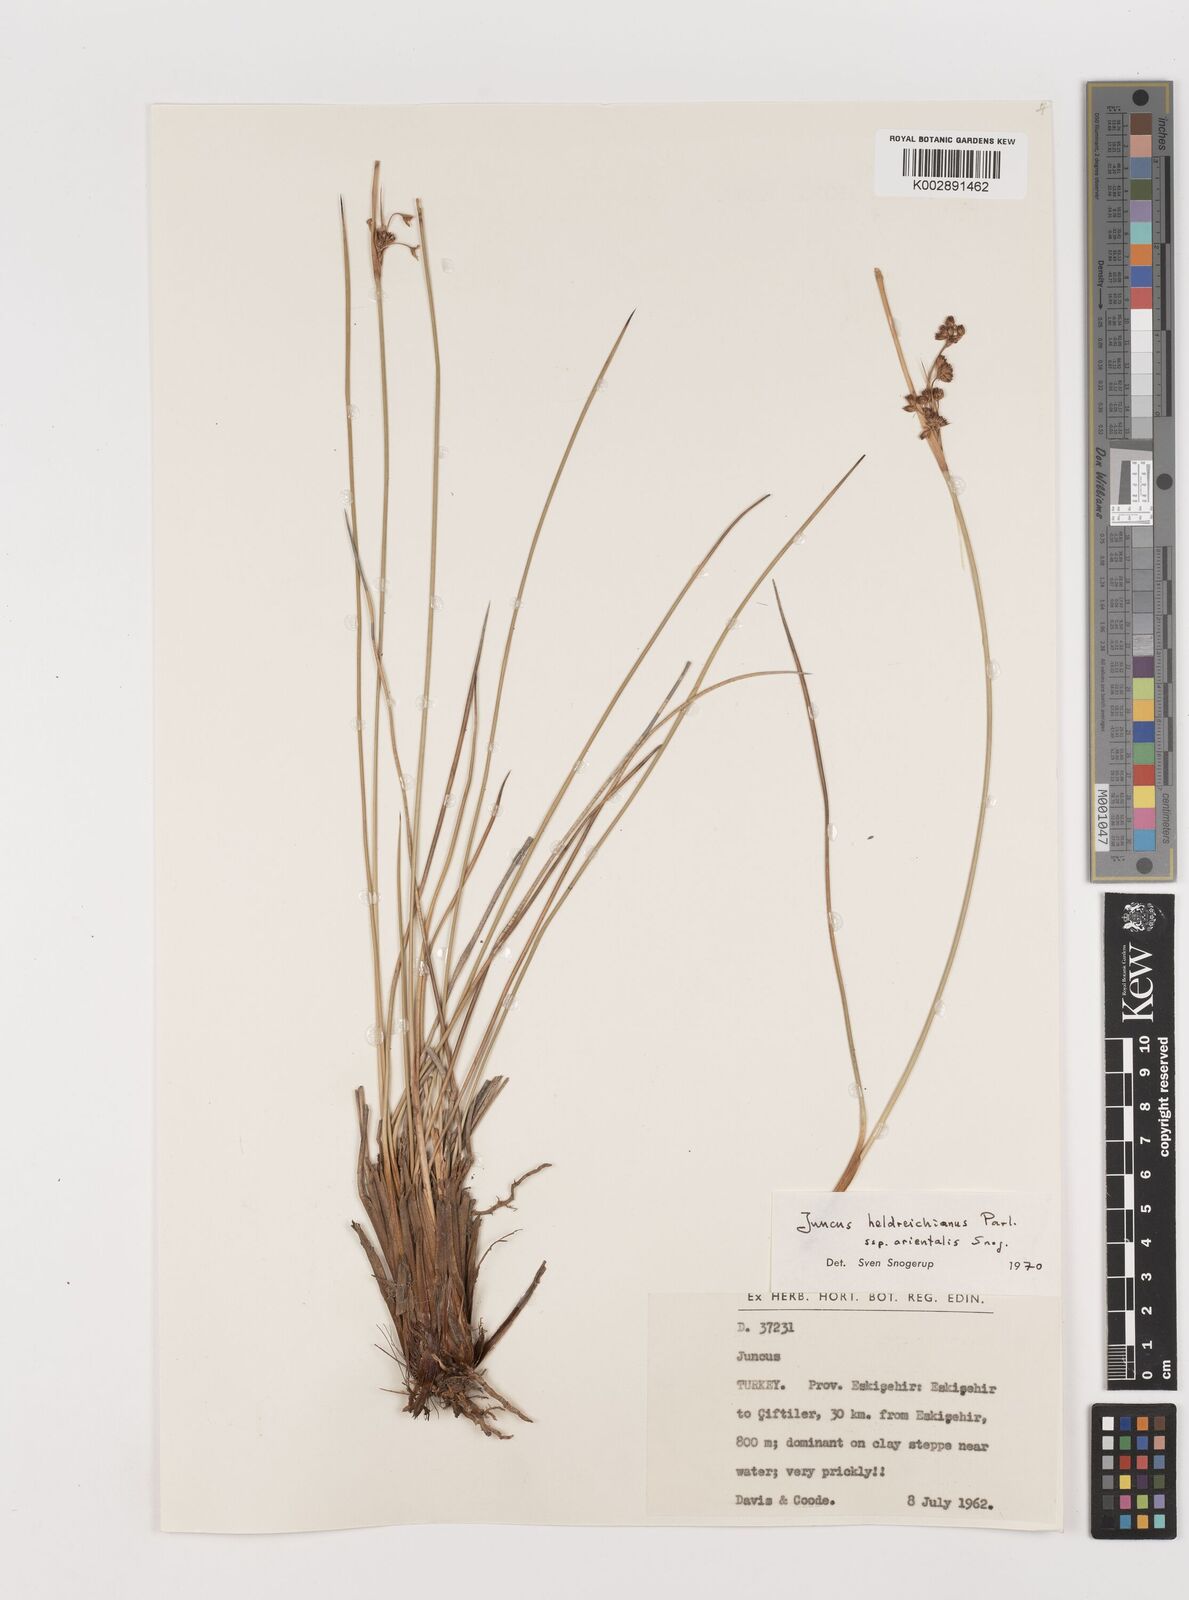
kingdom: Plantae
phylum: Tracheophyta
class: Liliopsida
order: Poales
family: Juncaceae
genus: Juncus
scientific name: Juncus heldreichianus
